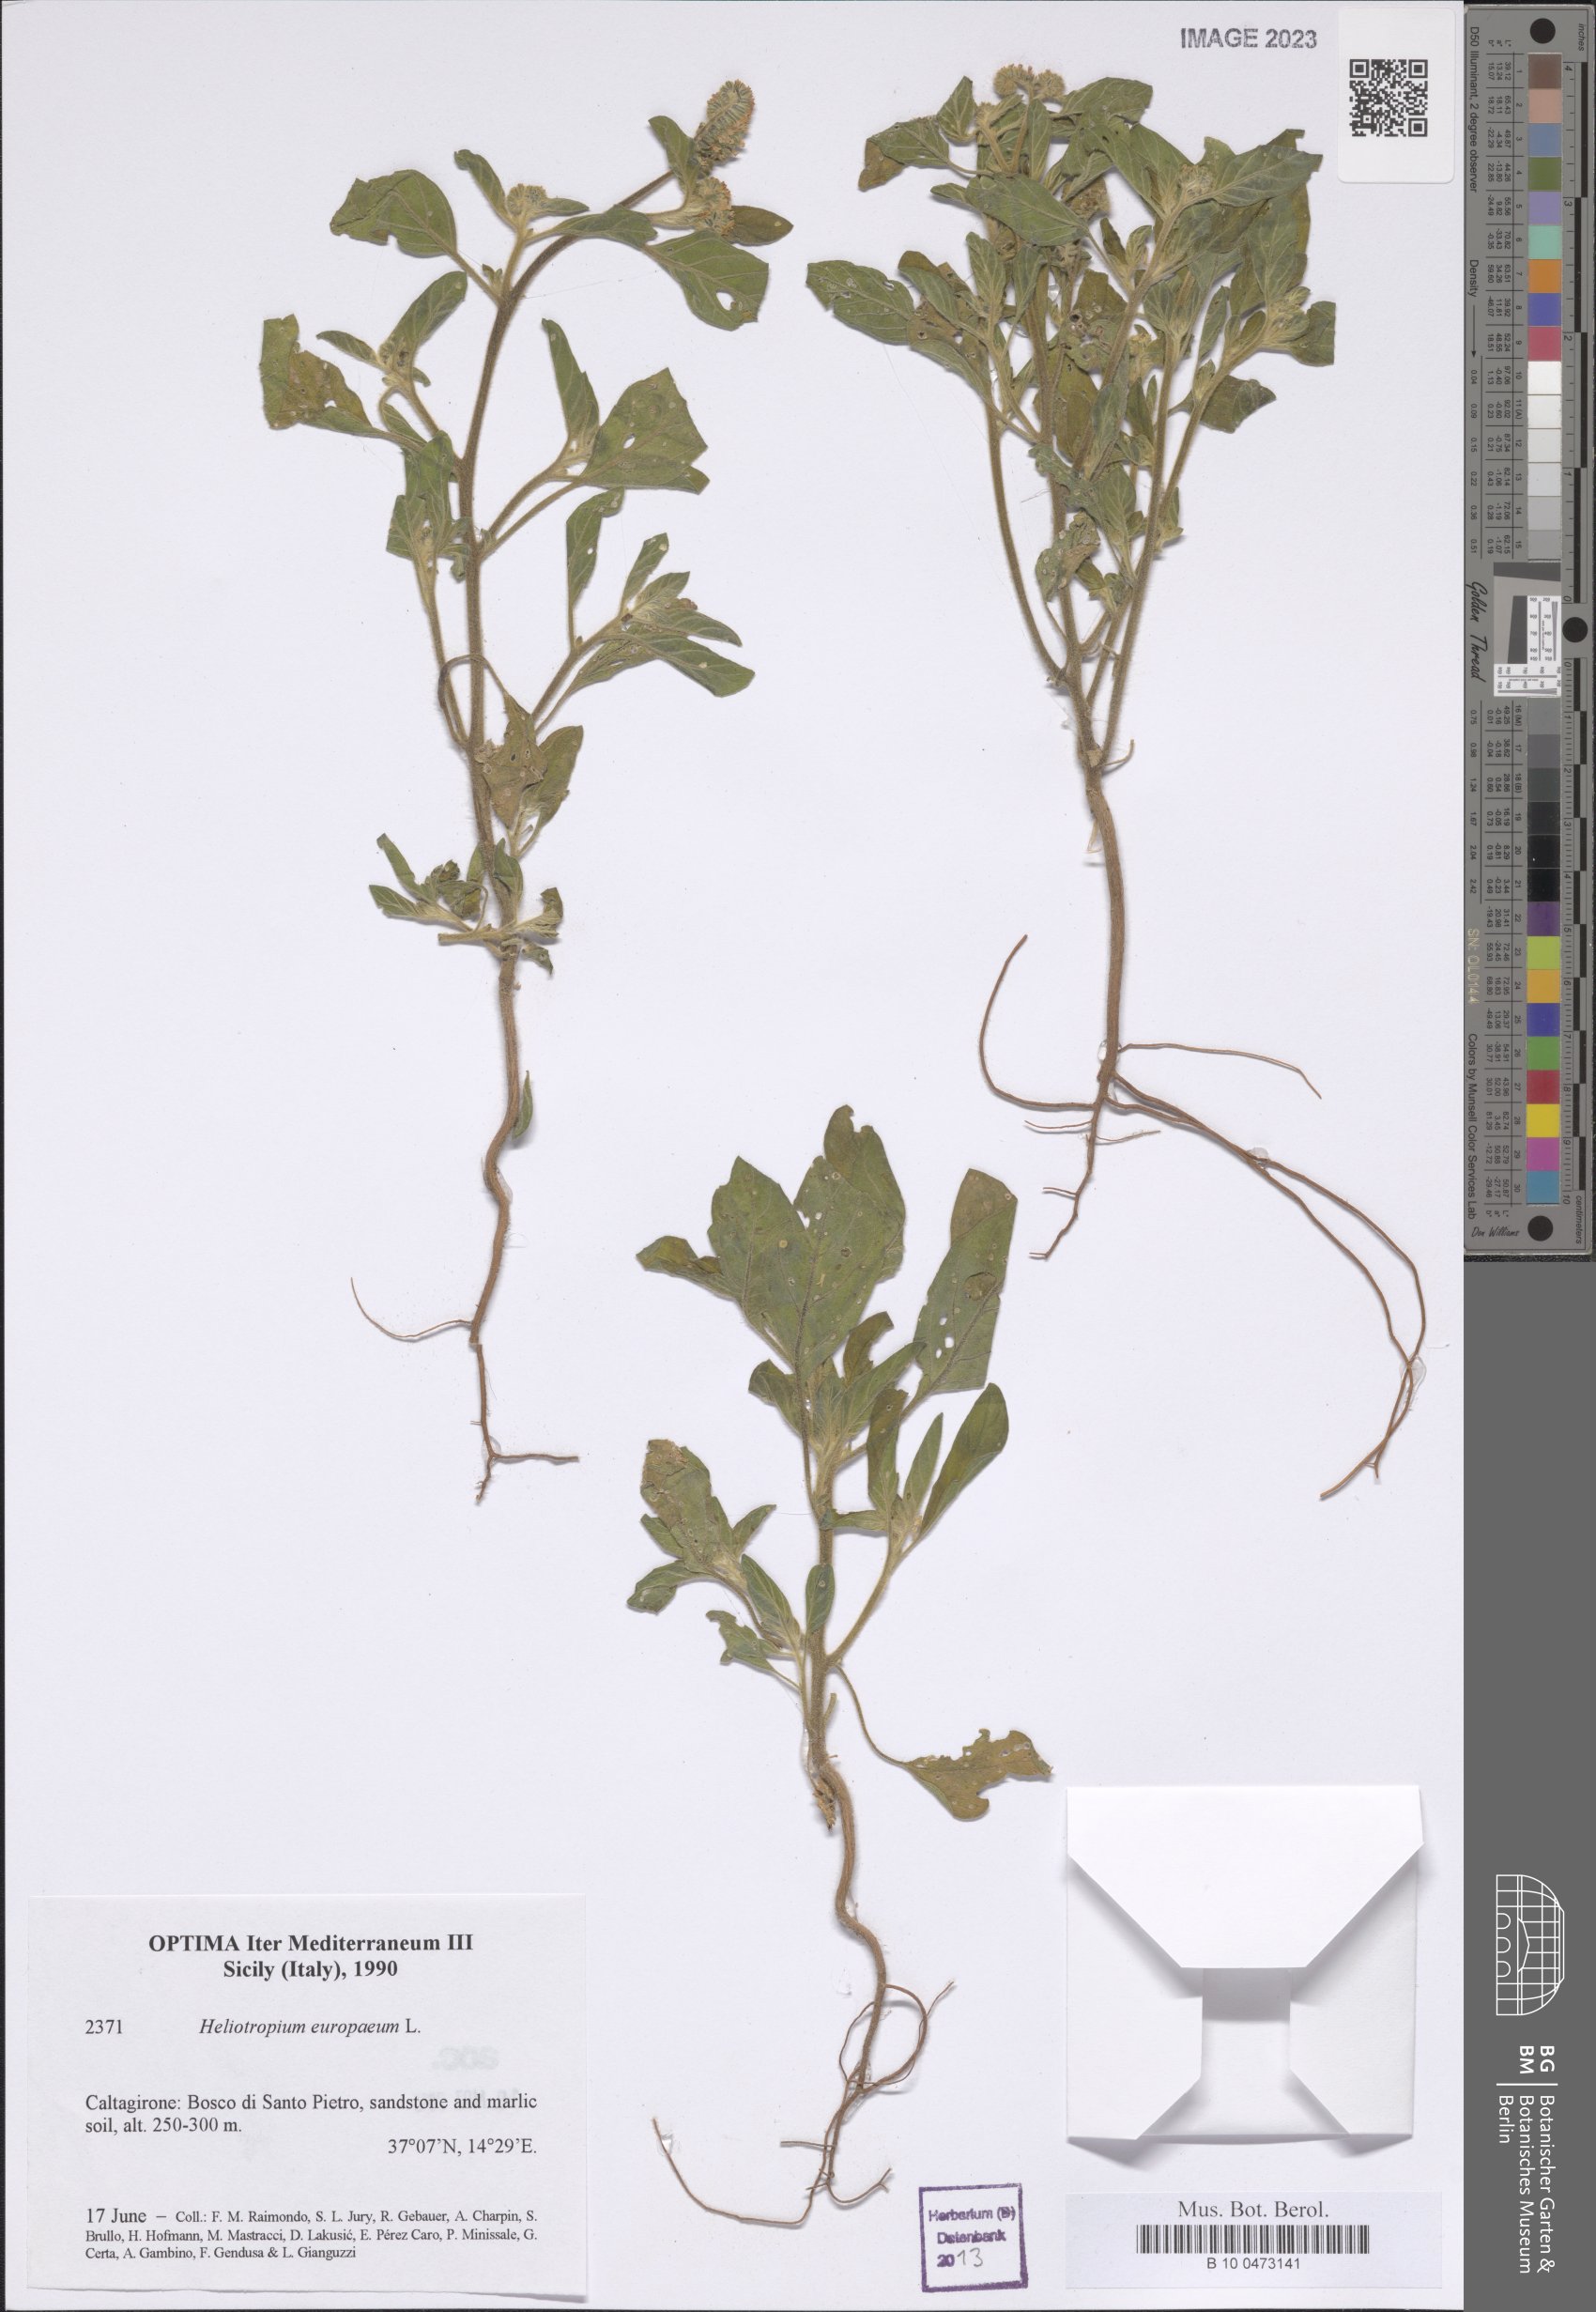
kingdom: Plantae
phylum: Tracheophyta
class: Magnoliopsida
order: Boraginales
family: Heliotropiaceae
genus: Heliotropium
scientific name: Heliotropium europaeum
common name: European heliotrope
